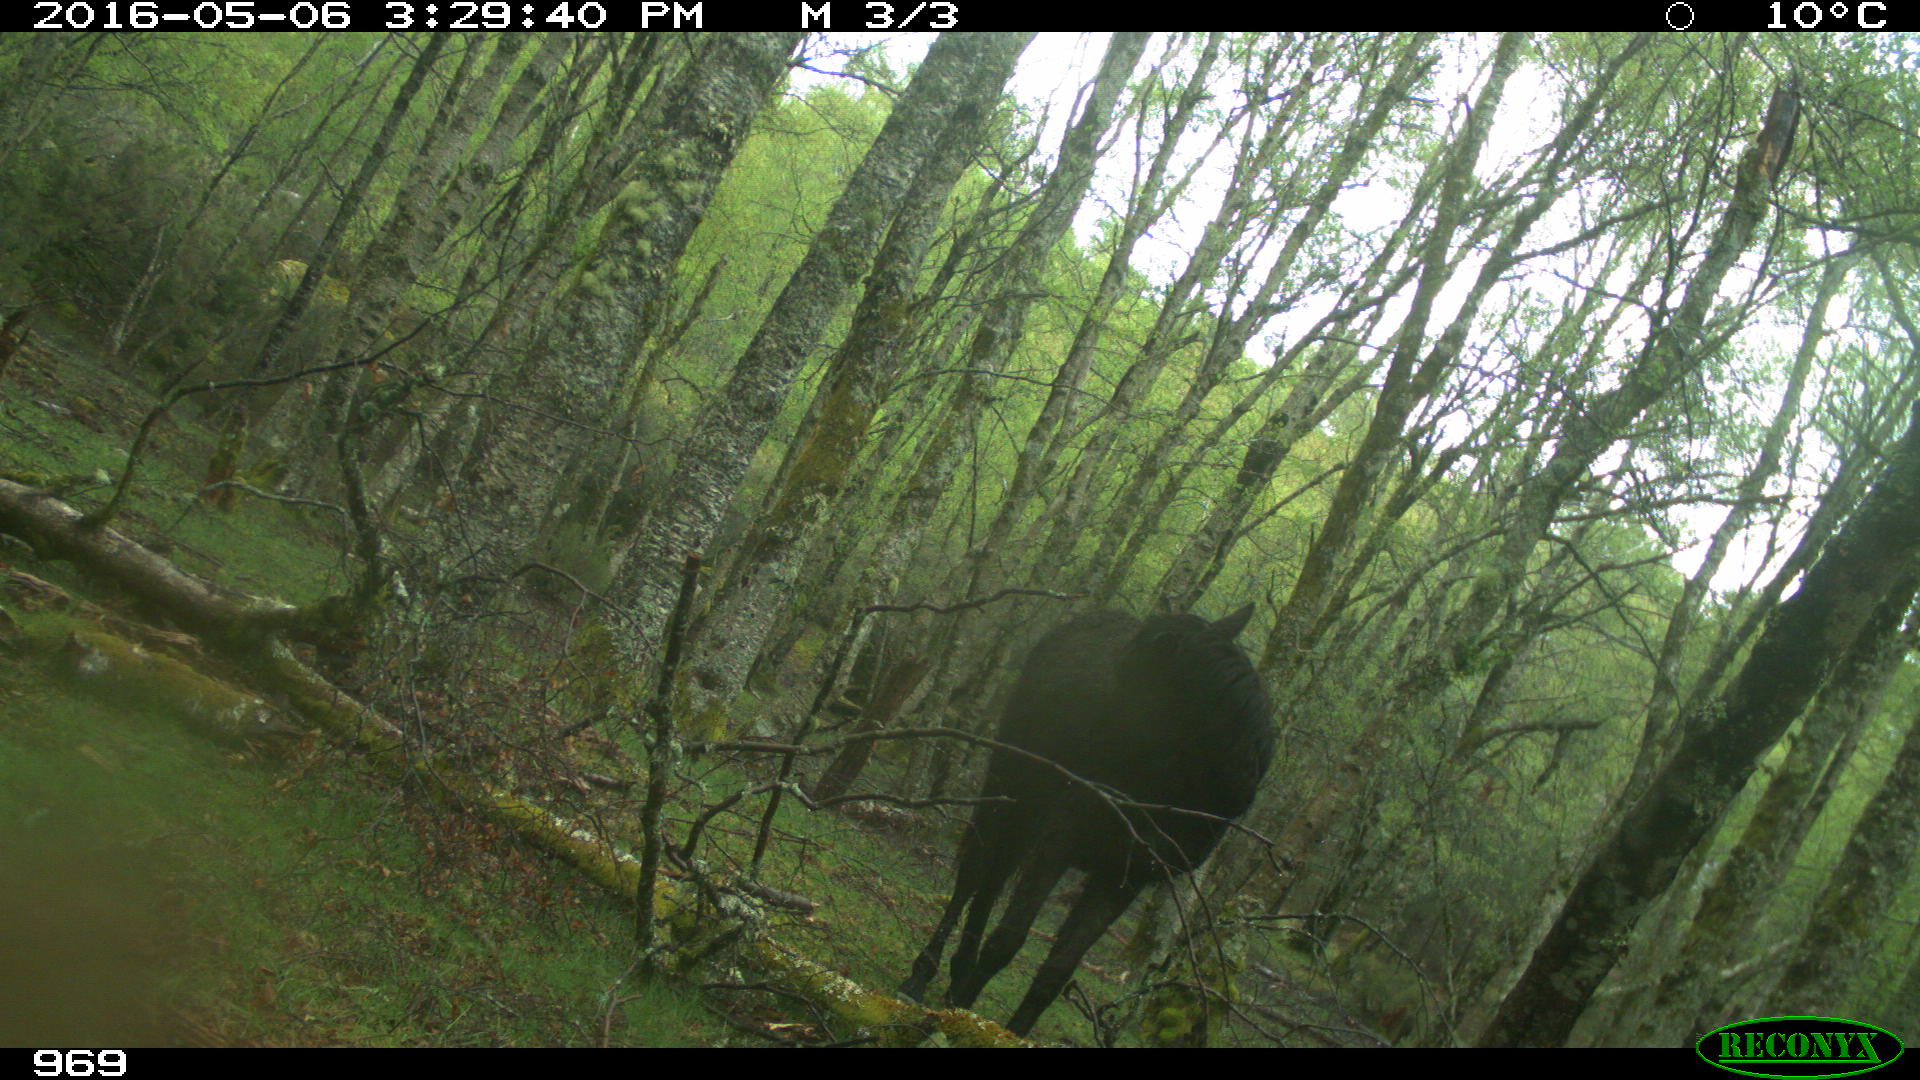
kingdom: Animalia
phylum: Chordata
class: Mammalia
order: Perissodactyla
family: Equidae
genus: Equus
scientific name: Equus caballus
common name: Horse
